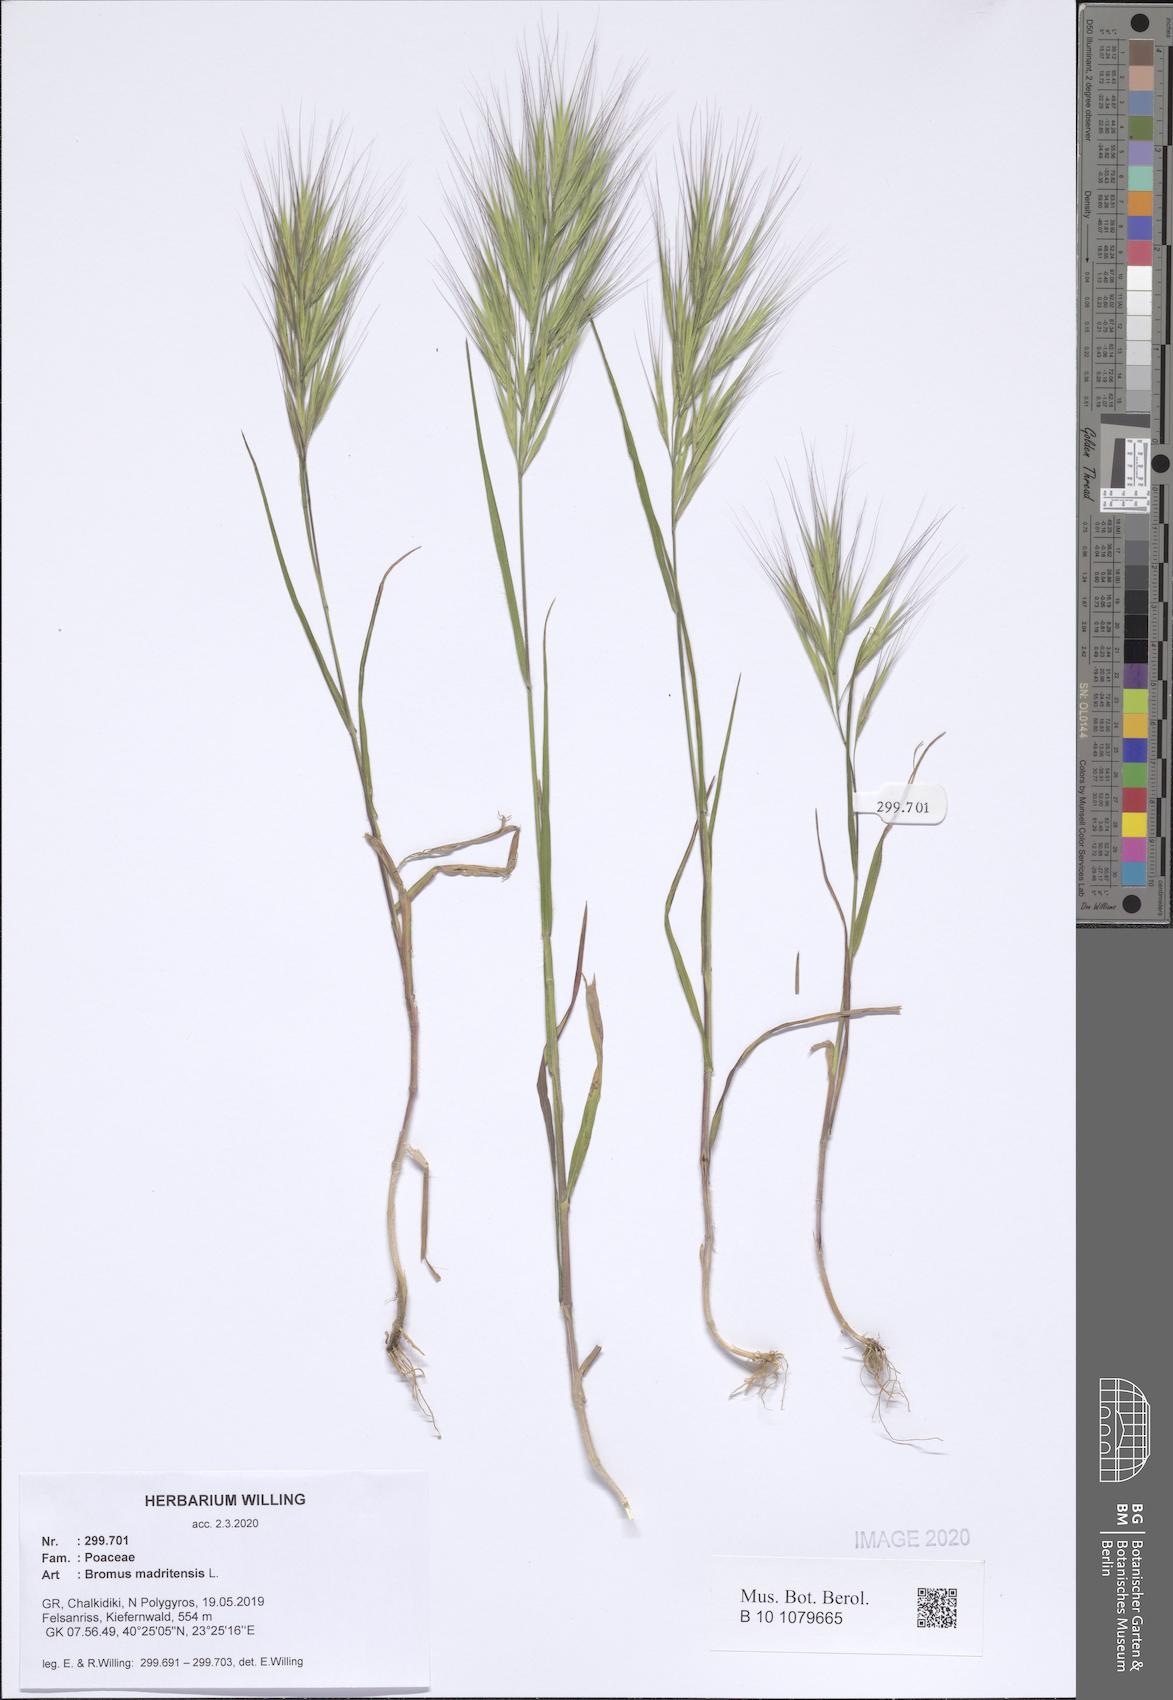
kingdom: Plantae
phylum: Tracheophyta
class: Liliopsida
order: Poales
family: Poaceae
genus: Bromus
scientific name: Bromus madritensis
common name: Compact brome
